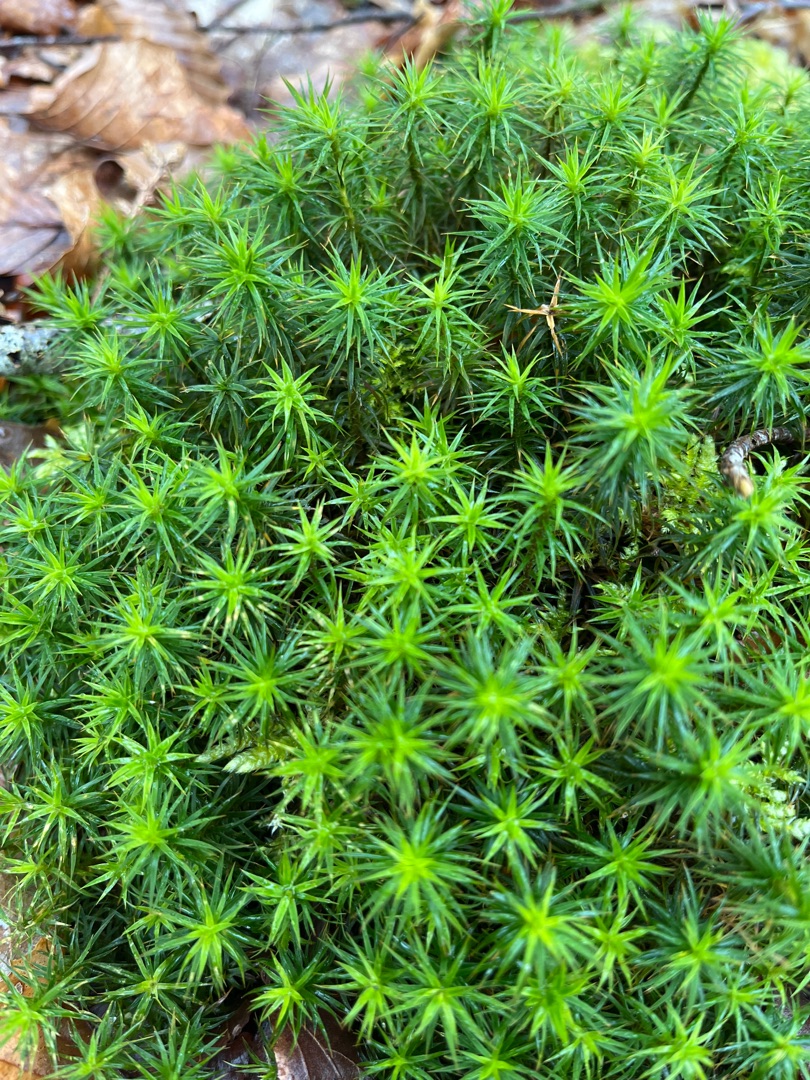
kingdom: Plantae
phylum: Bryophyta
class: Polytrichopsida
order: Polytrichales
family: Polytrichaceae
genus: Polytrichum
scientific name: Polytrichum formosum
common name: Skov-jomfruhår
